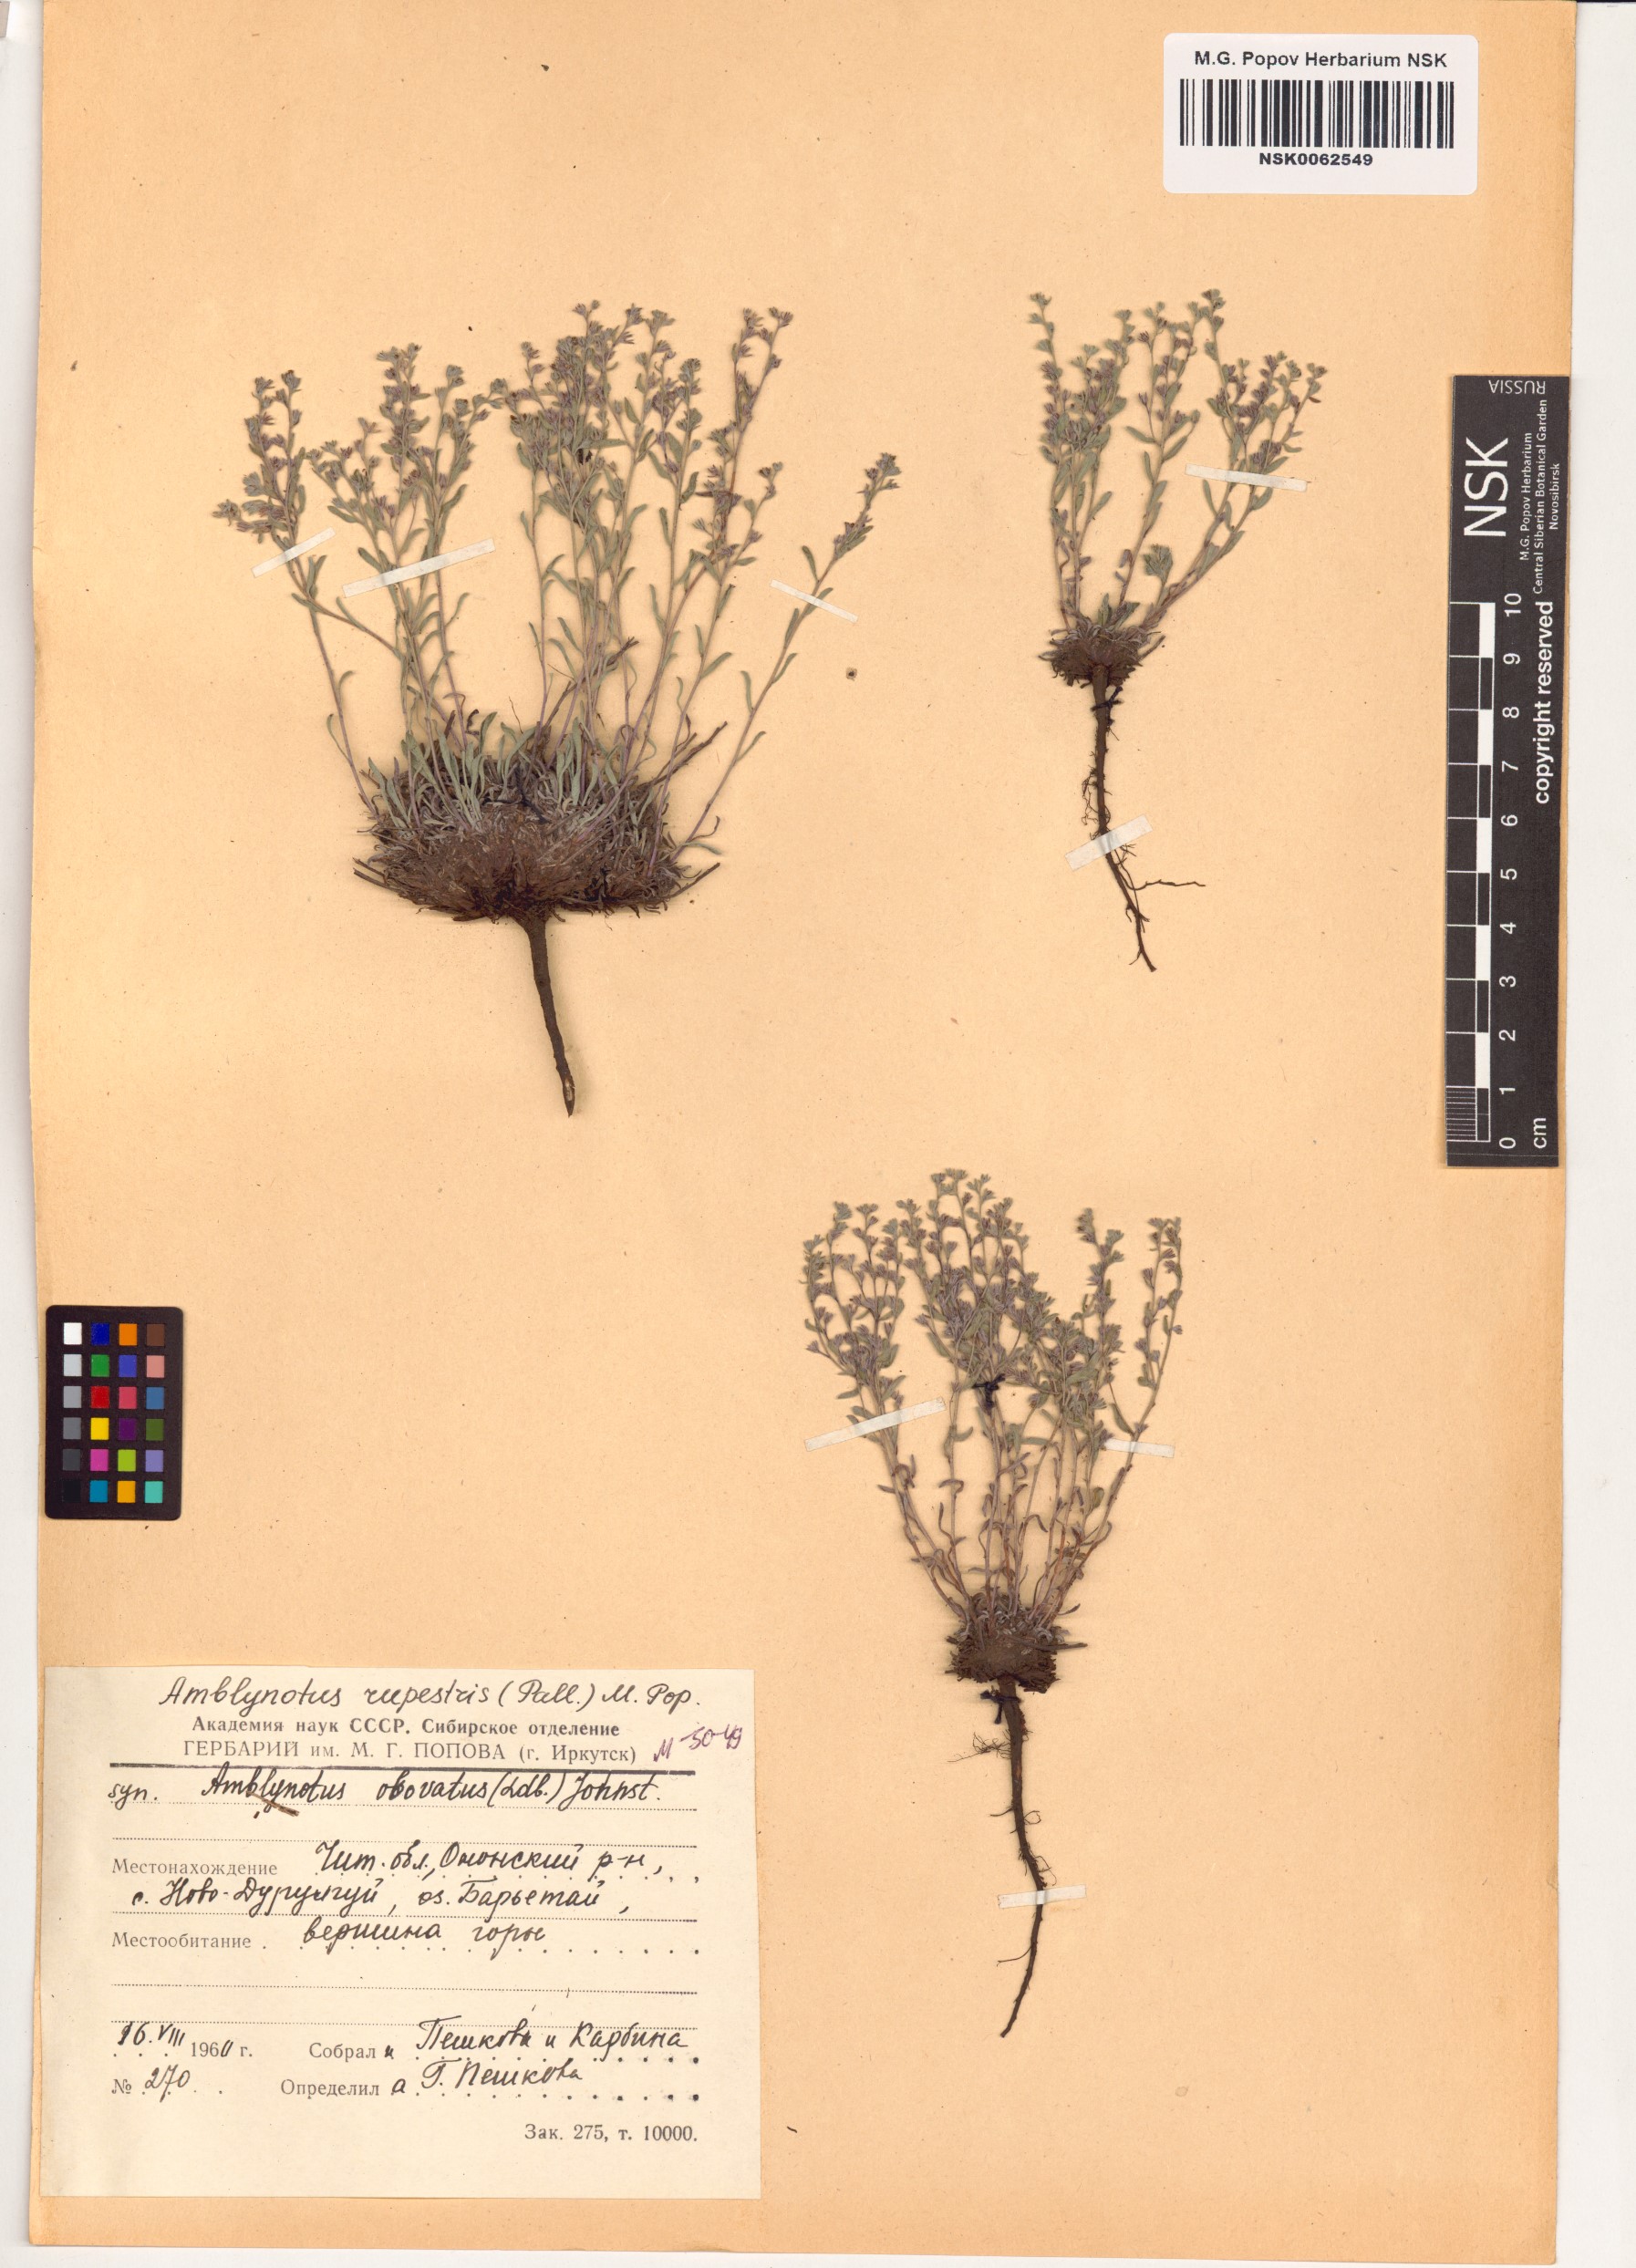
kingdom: Plantae
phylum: Tracheophyta
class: Magnoliopsida
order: Boraginales
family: Boraginaceae
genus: Eritrichium
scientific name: Eritrichium rupestre
